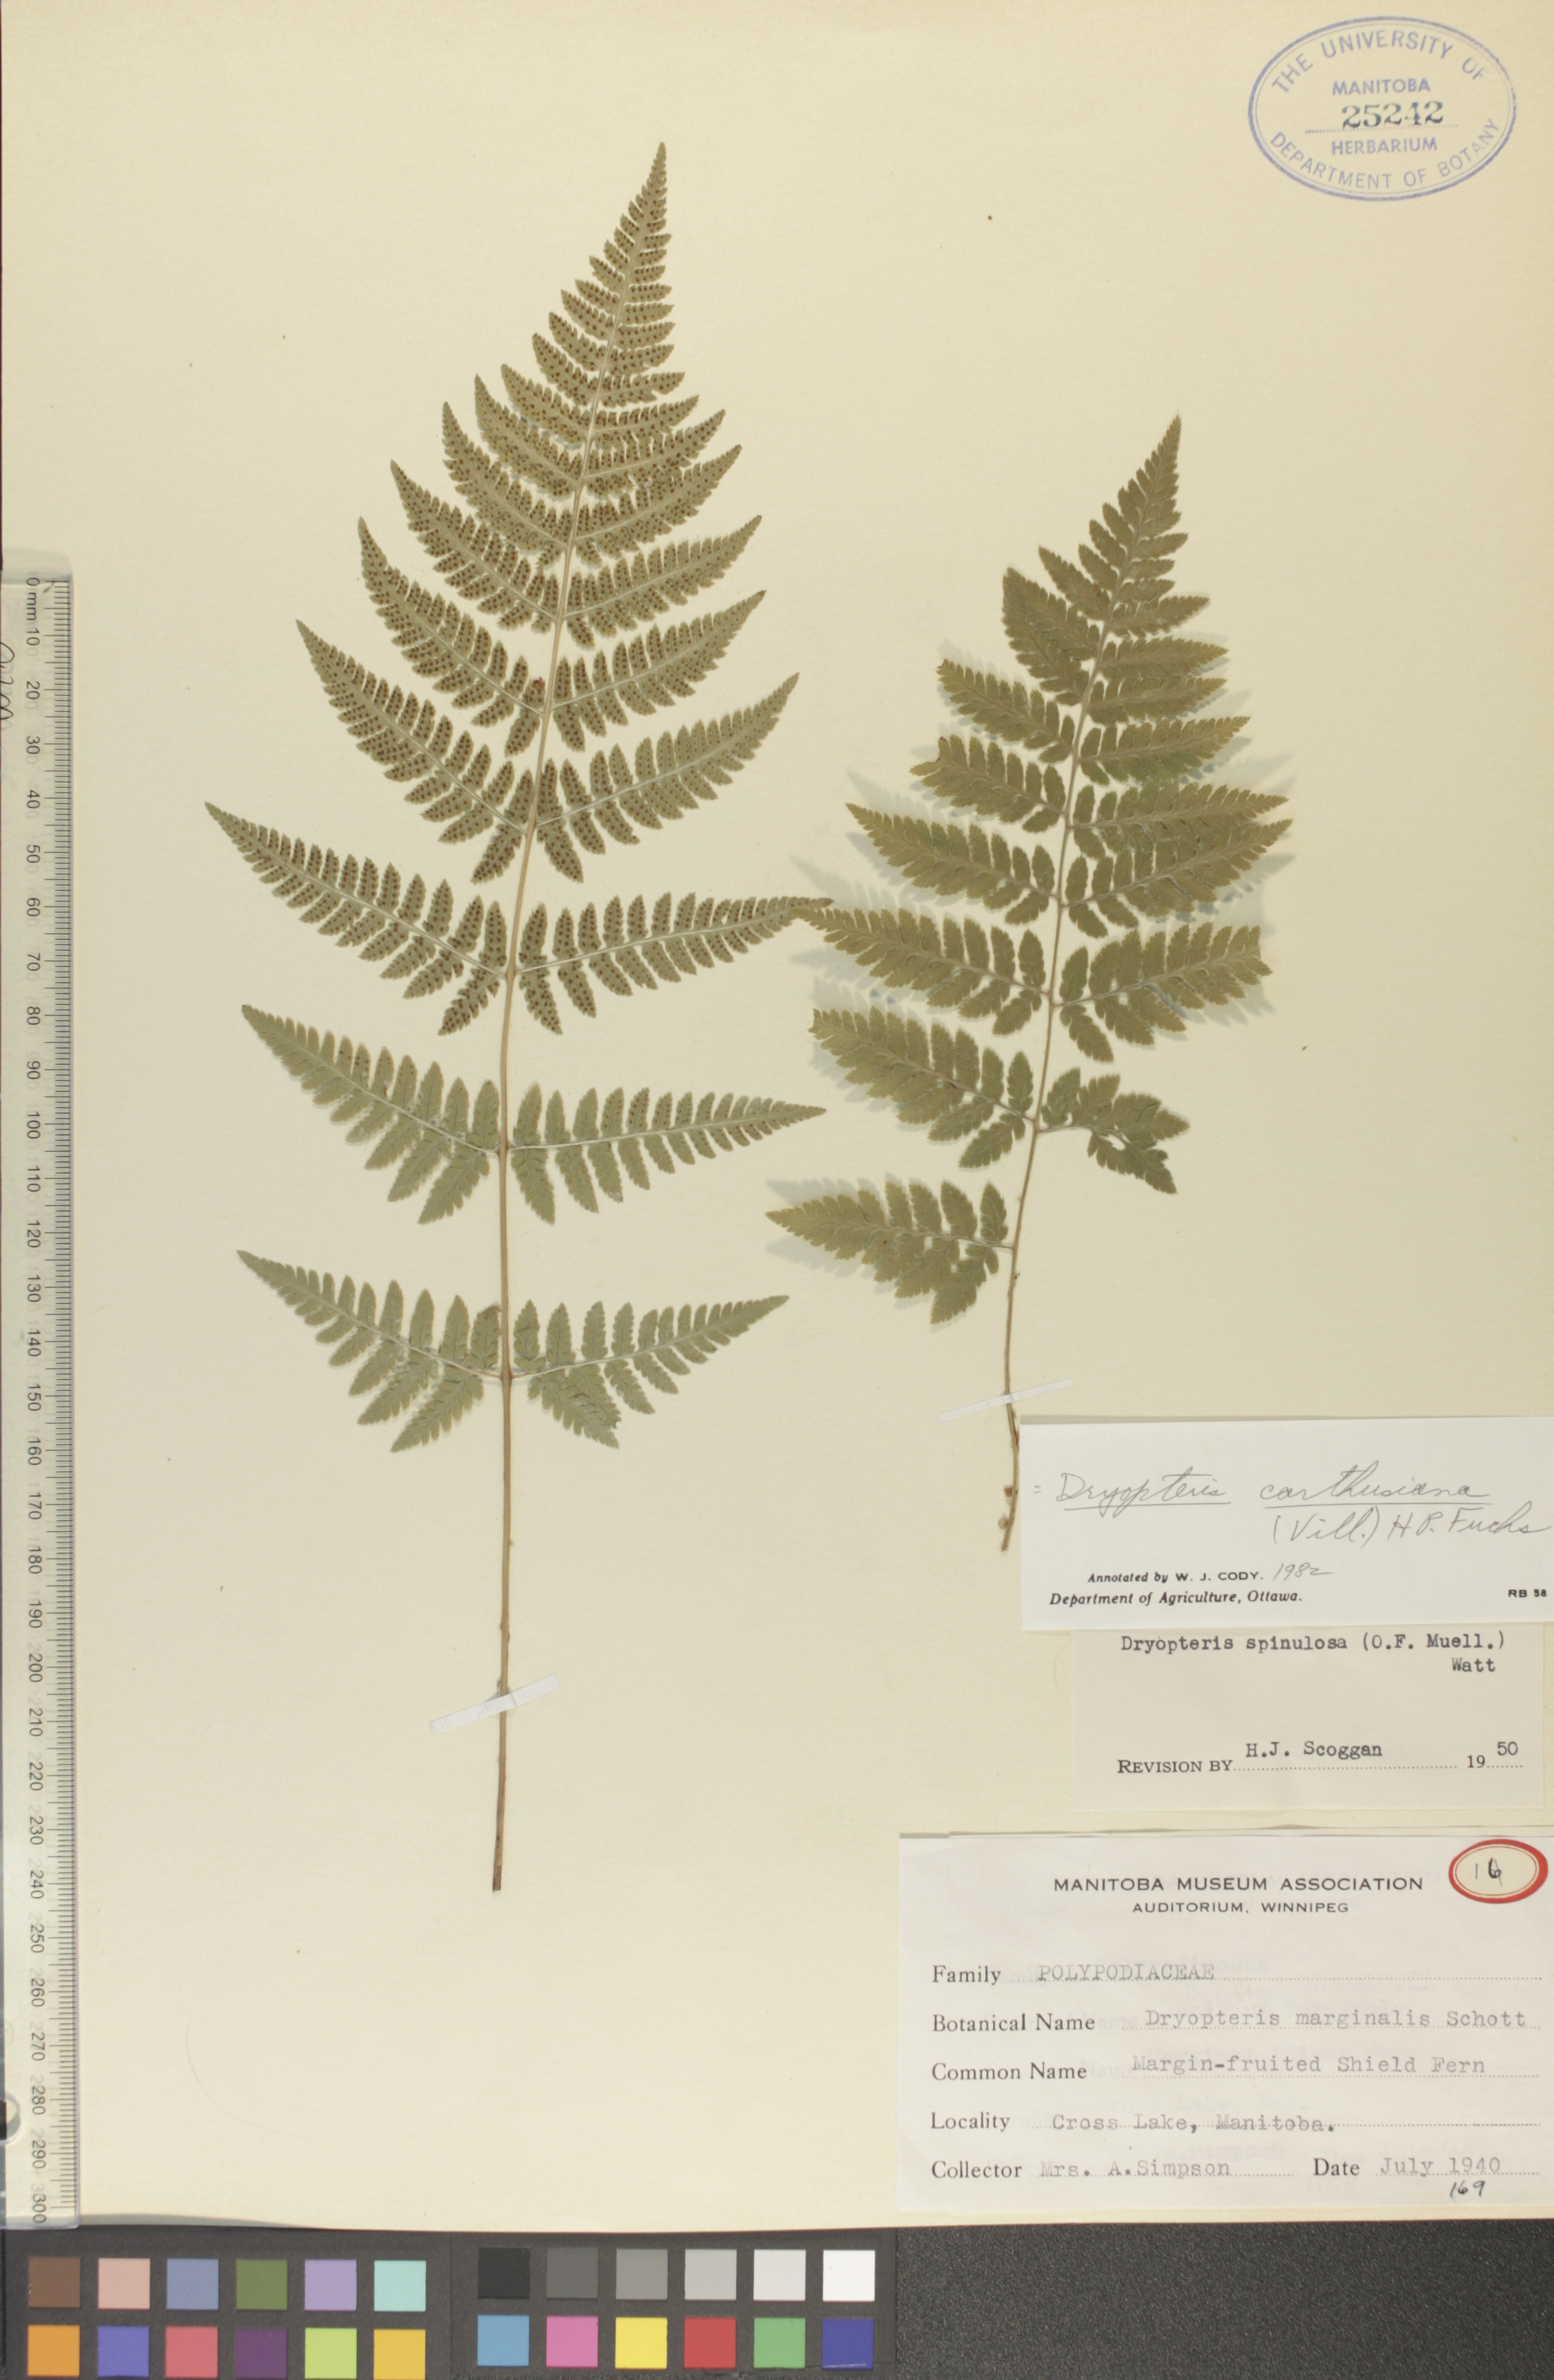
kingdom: Plantae
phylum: Tracheophyta
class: Polypodiopsida
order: Polypodiales
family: Dryopteridaceae
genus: Dryopteris
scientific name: Dryopteris carthusiana
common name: Narrow buckler-fern
